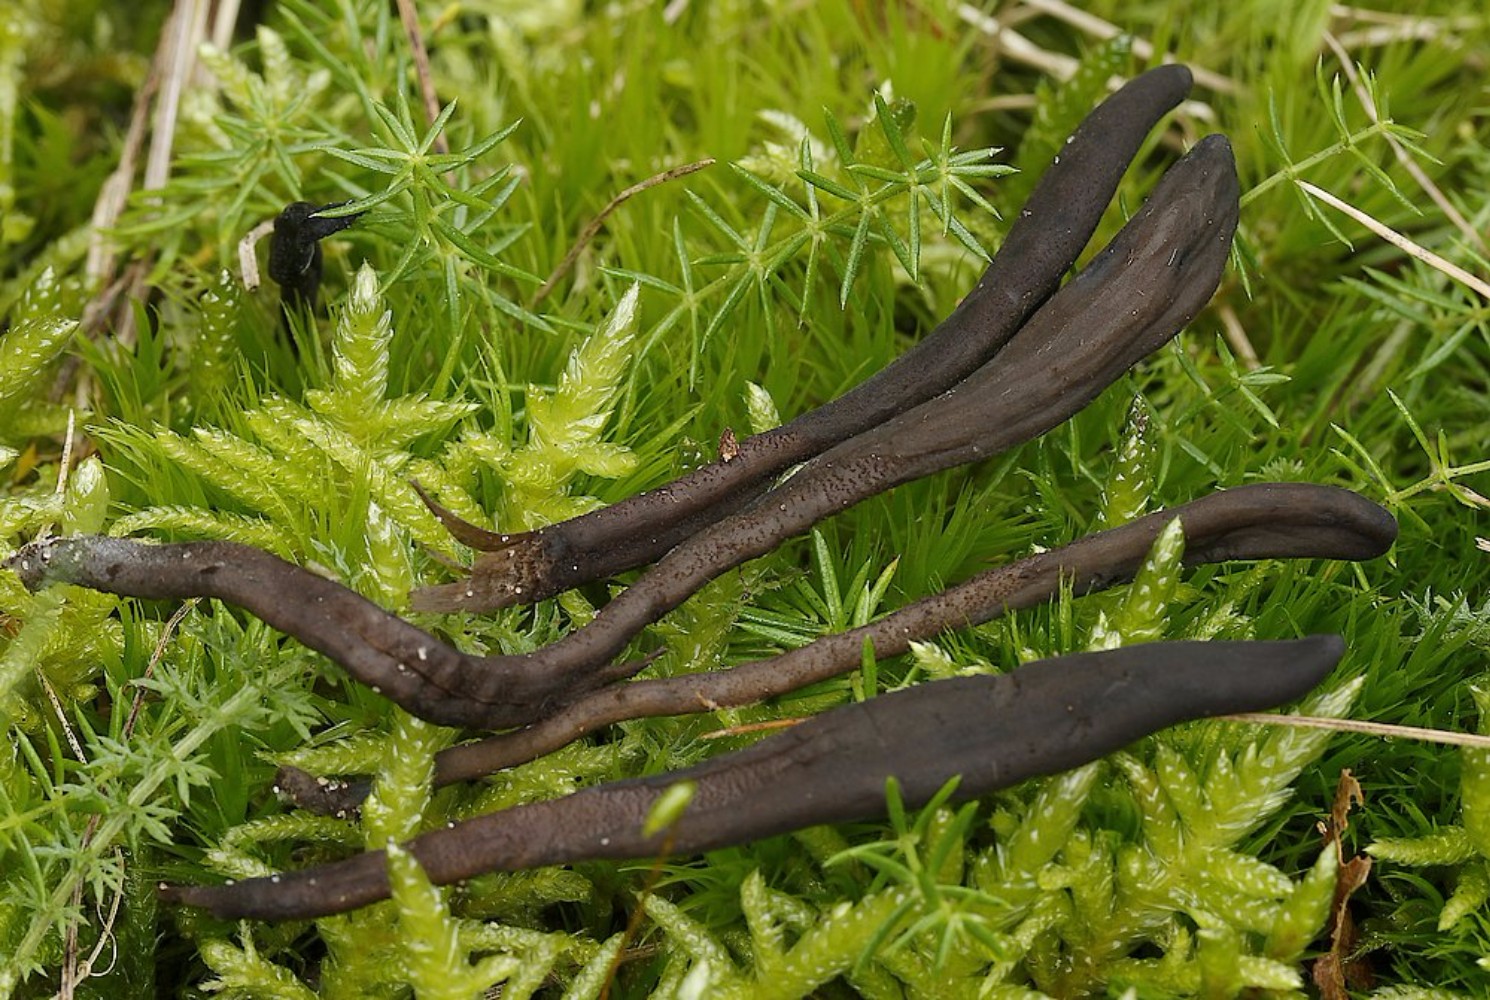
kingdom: Fungi
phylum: Ascomycota
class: Geoglossomycetes
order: Geoglossales
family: Geoglossaceae
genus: Hemileucoglossum
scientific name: Hemileucoglossum elongatum
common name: småsporet jordtunge
